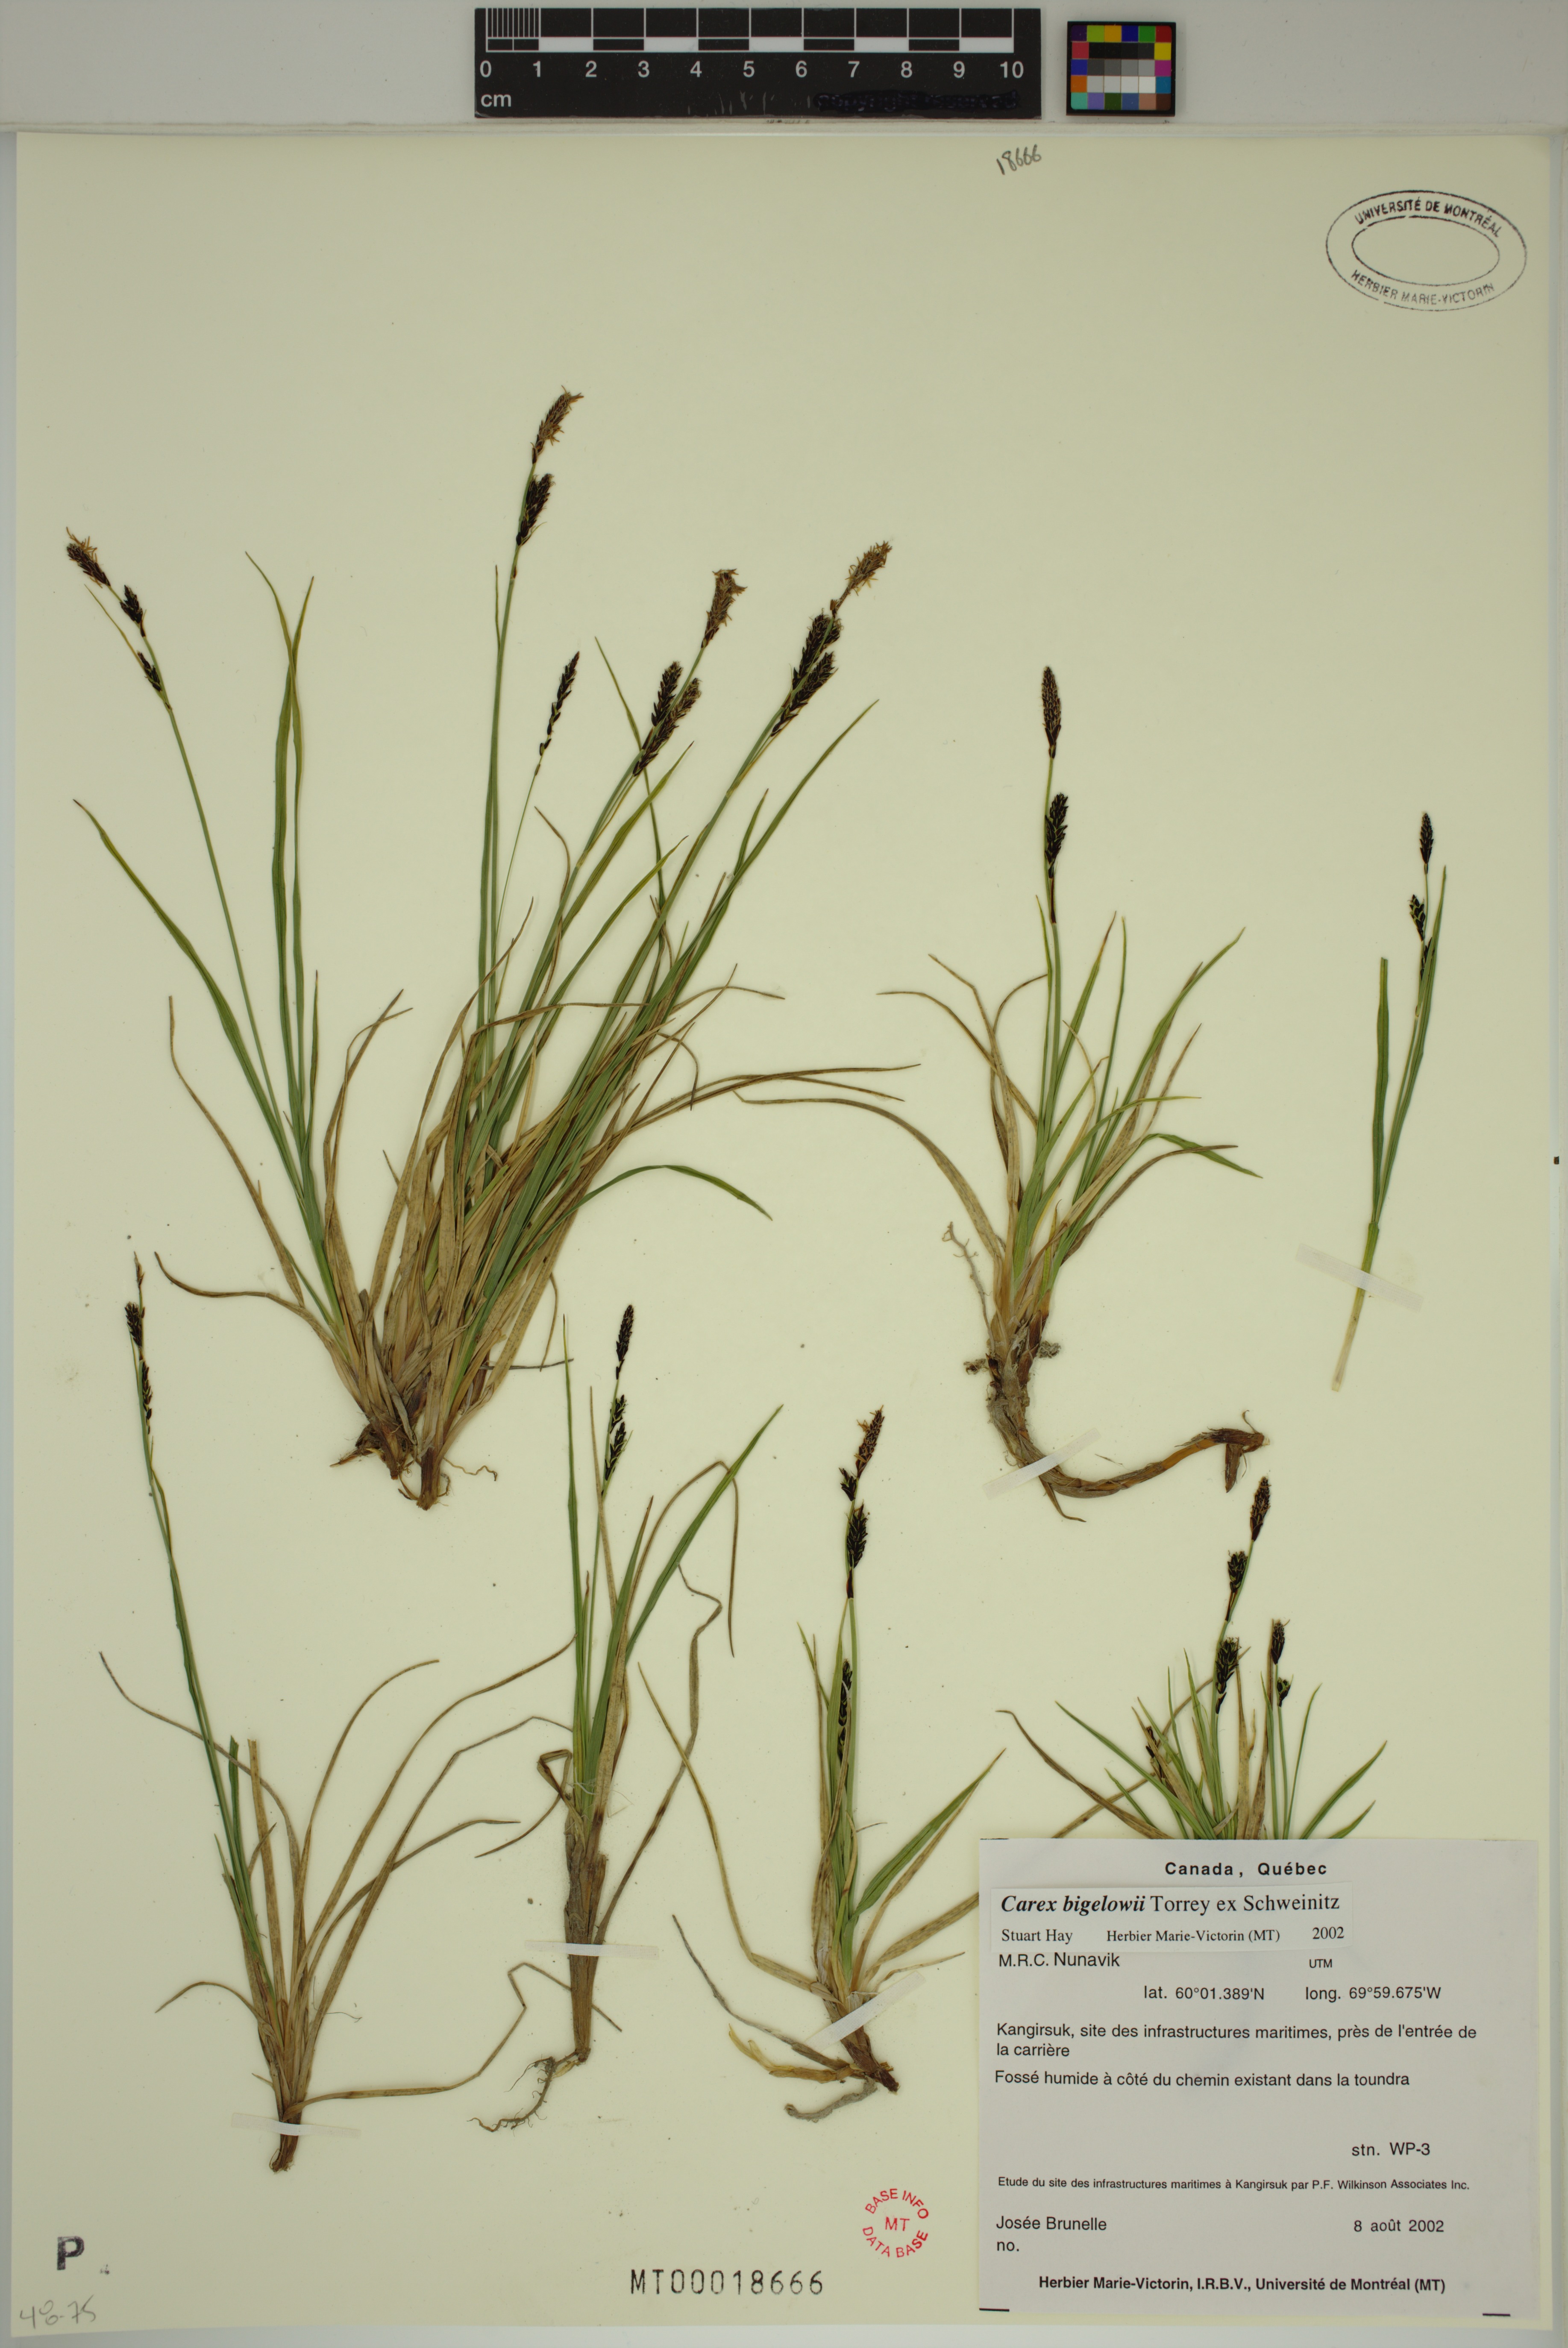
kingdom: Plantae
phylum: Tracheophyta
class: Liliopsida
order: Poales
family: Cyperaceae
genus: Carex
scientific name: Carex bigelowii
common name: Stiff sedge
